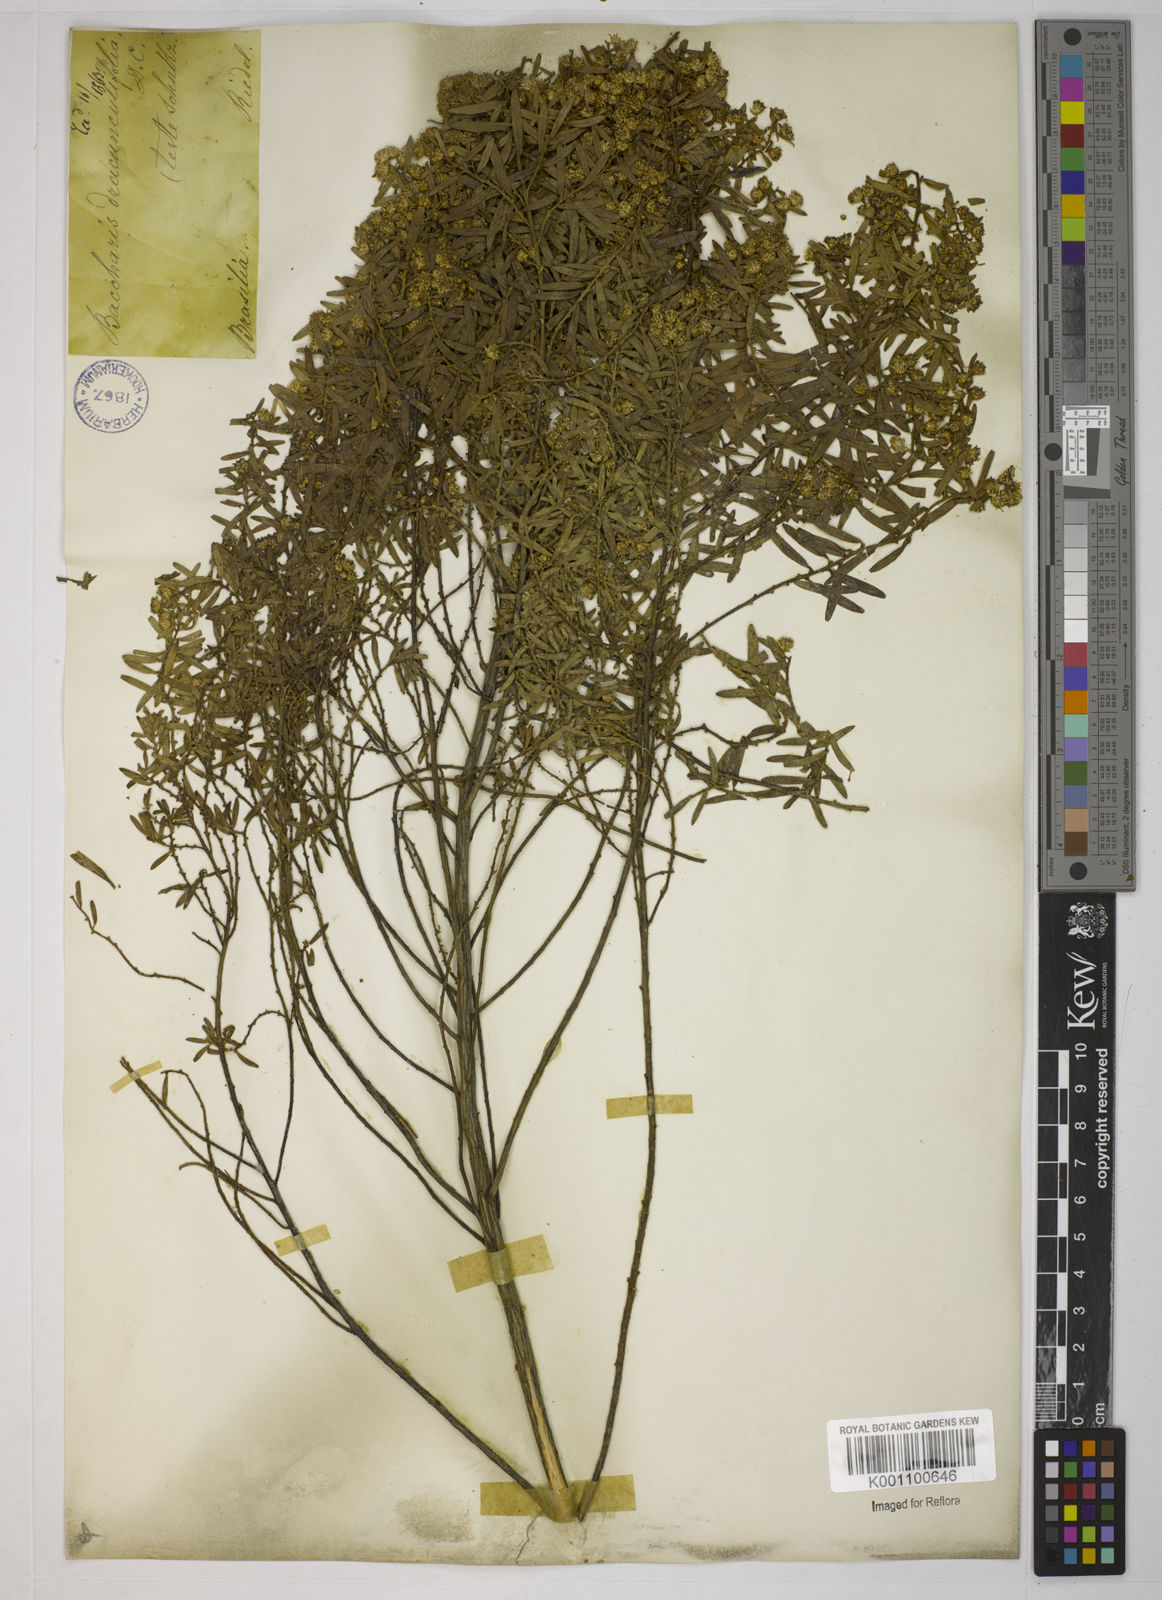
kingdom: Plantae
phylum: Tracheophyta
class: Magnoliopsida
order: Asterales
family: Asteraceae
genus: Baccharis
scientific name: Baccharis dracunculifolia
